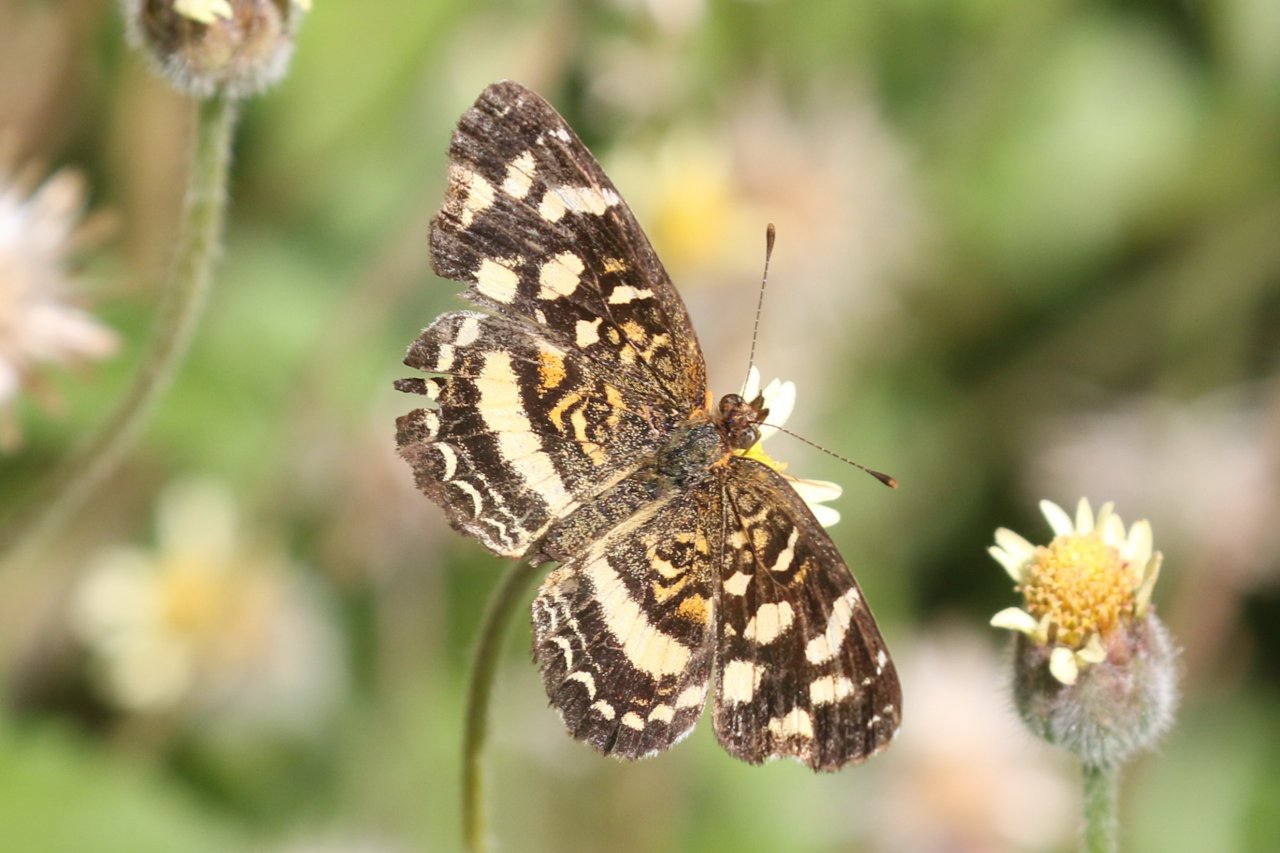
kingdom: Animalia
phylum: Arthropoda
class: Insecta
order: Lepidoptera
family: Nymphalidae
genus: Anthanassa
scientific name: Anthanassa tulcis
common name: Pale-banded Crescent
